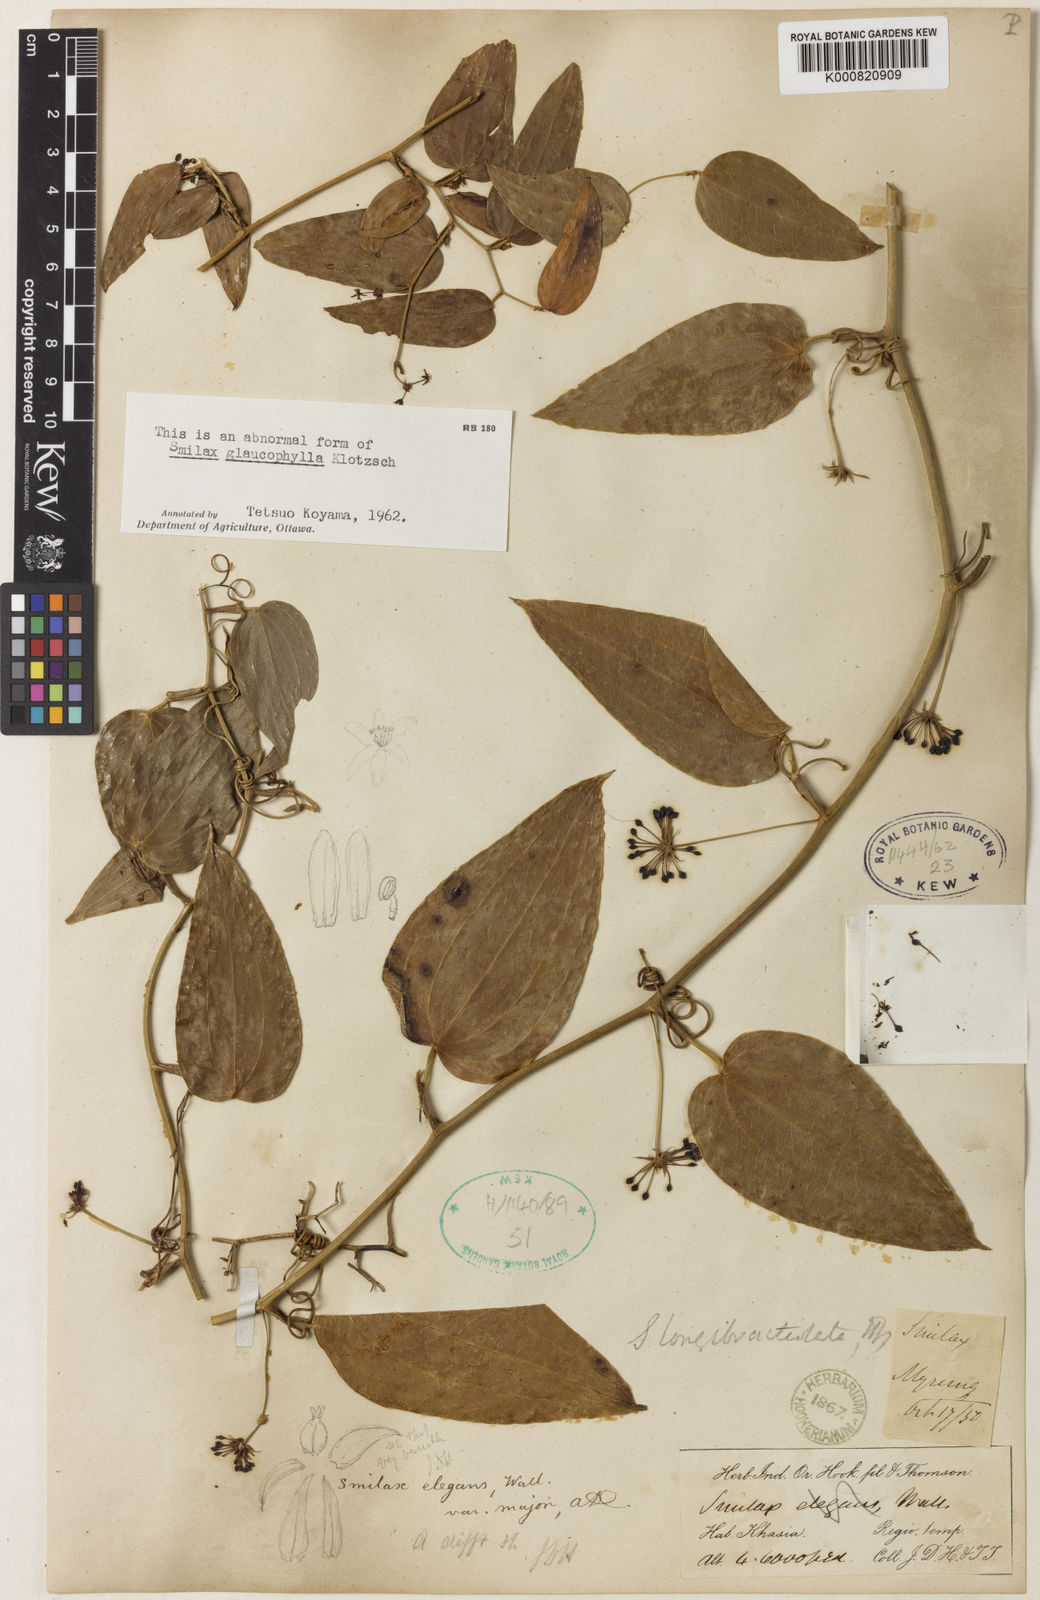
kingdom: Plantae
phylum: Tracheophyta
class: Liliopsida
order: Liliales
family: Smilacaceae
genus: Smilax
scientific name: Smilax elegans
